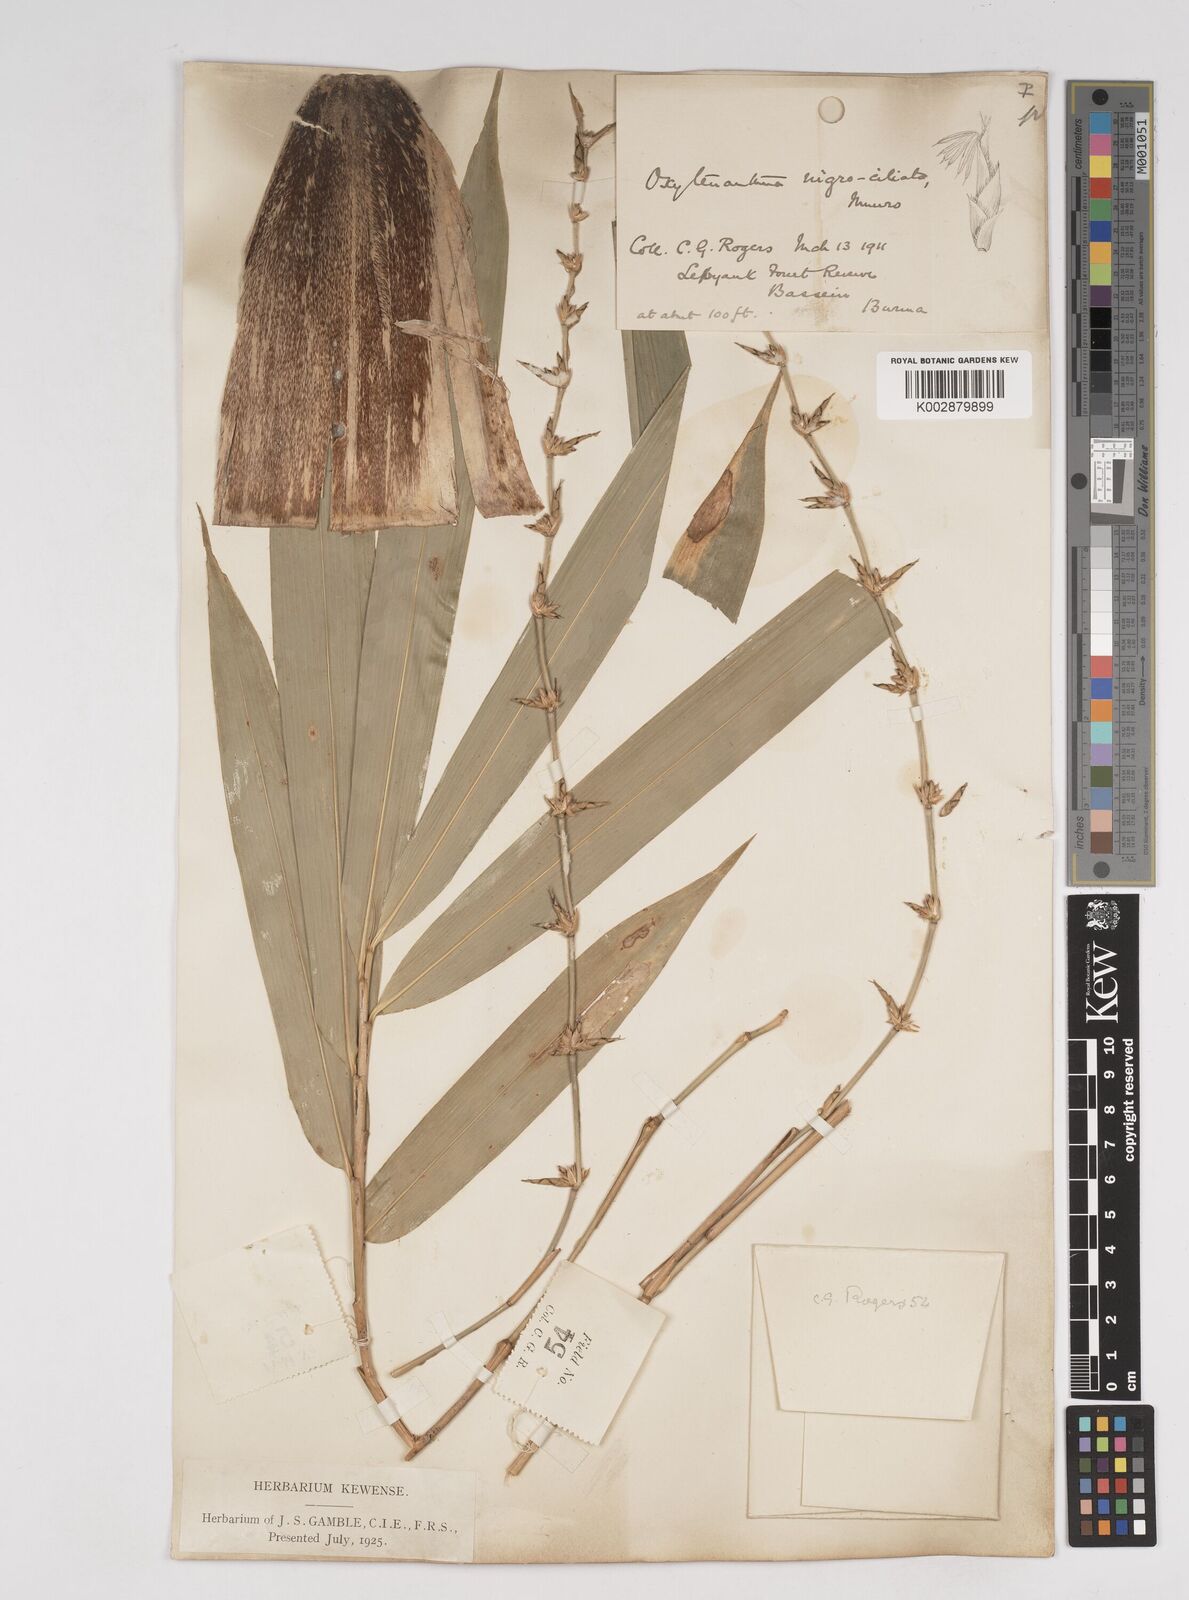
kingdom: Plantae
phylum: Tracheophyta
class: Liliopsida
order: Poales
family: Poaceae
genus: Gigantochloa
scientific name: Gigantochloa nigrociliata
